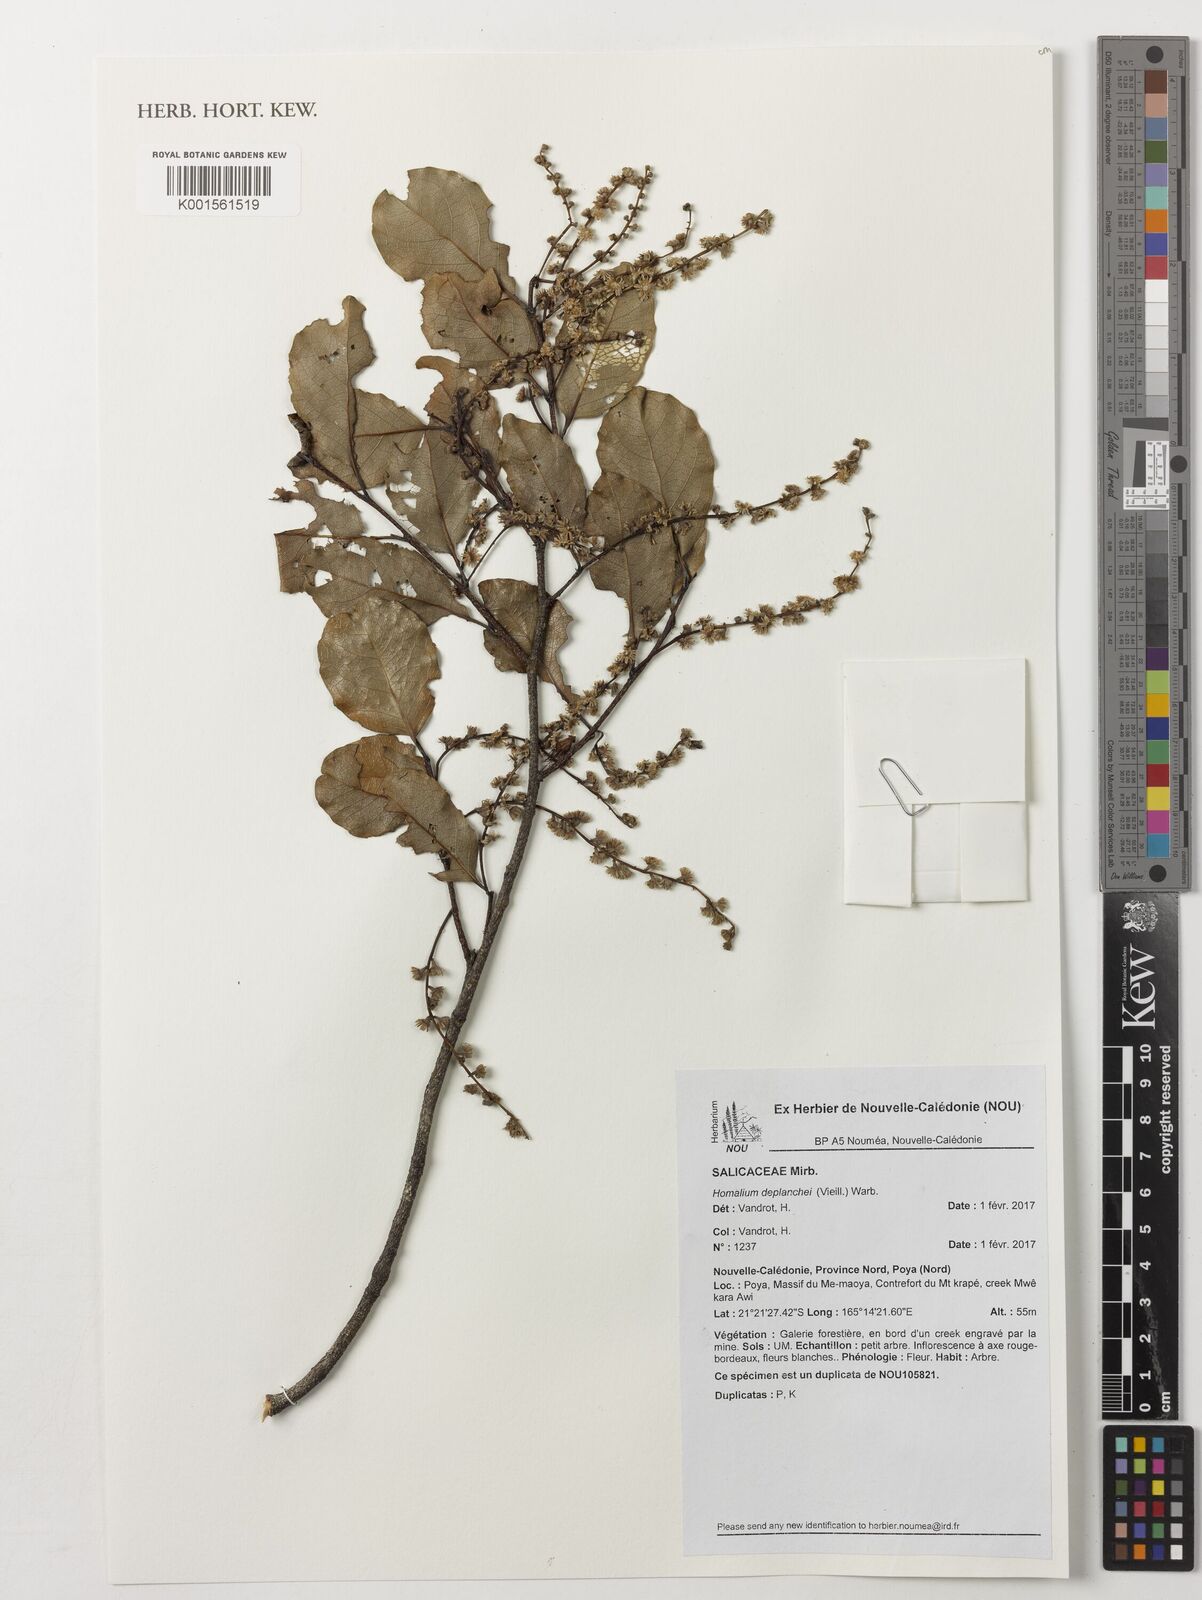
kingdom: Plantae
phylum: Tracheophyta
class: Magnoliopsida
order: Malpighiales
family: Salicaceae
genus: Homalium
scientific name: Homalium deplanchei
